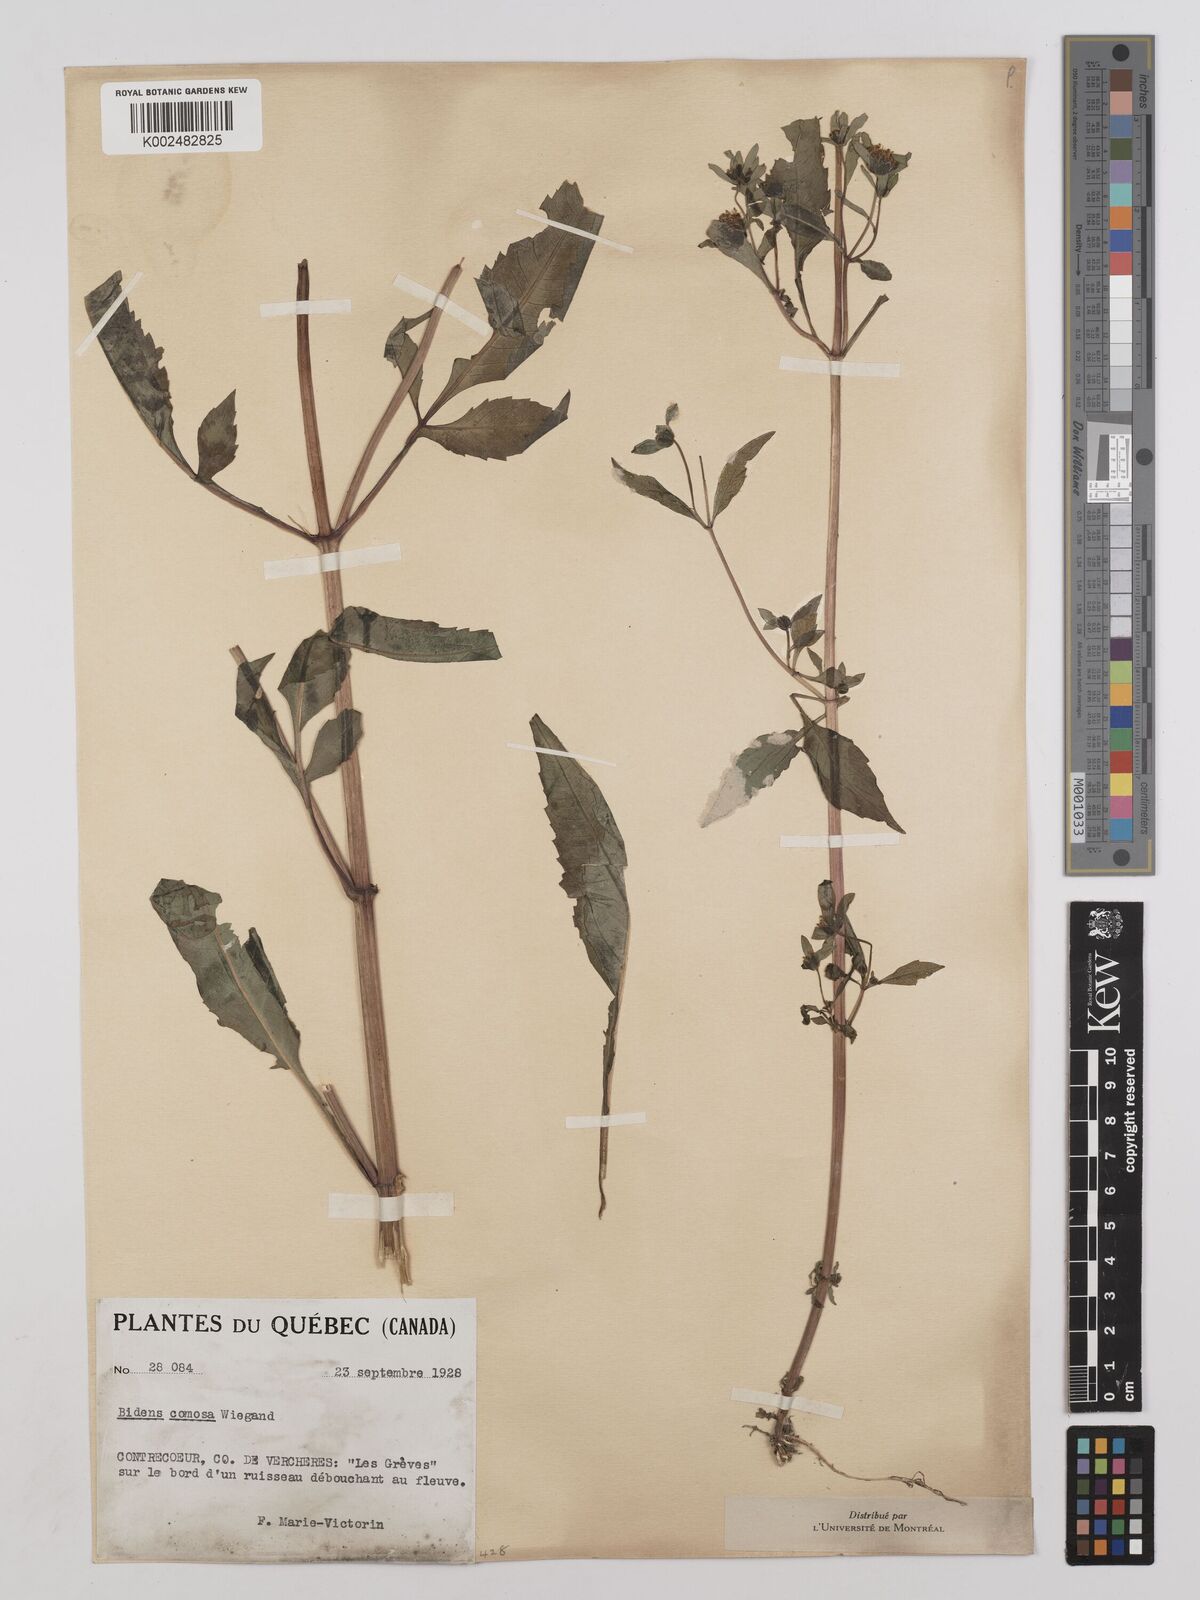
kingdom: Plantae
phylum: Tracheophyta
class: Magnoliopsida
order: Asterales
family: Asteraceae
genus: Bidens
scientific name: Bidens connata
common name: London bur-marigold
